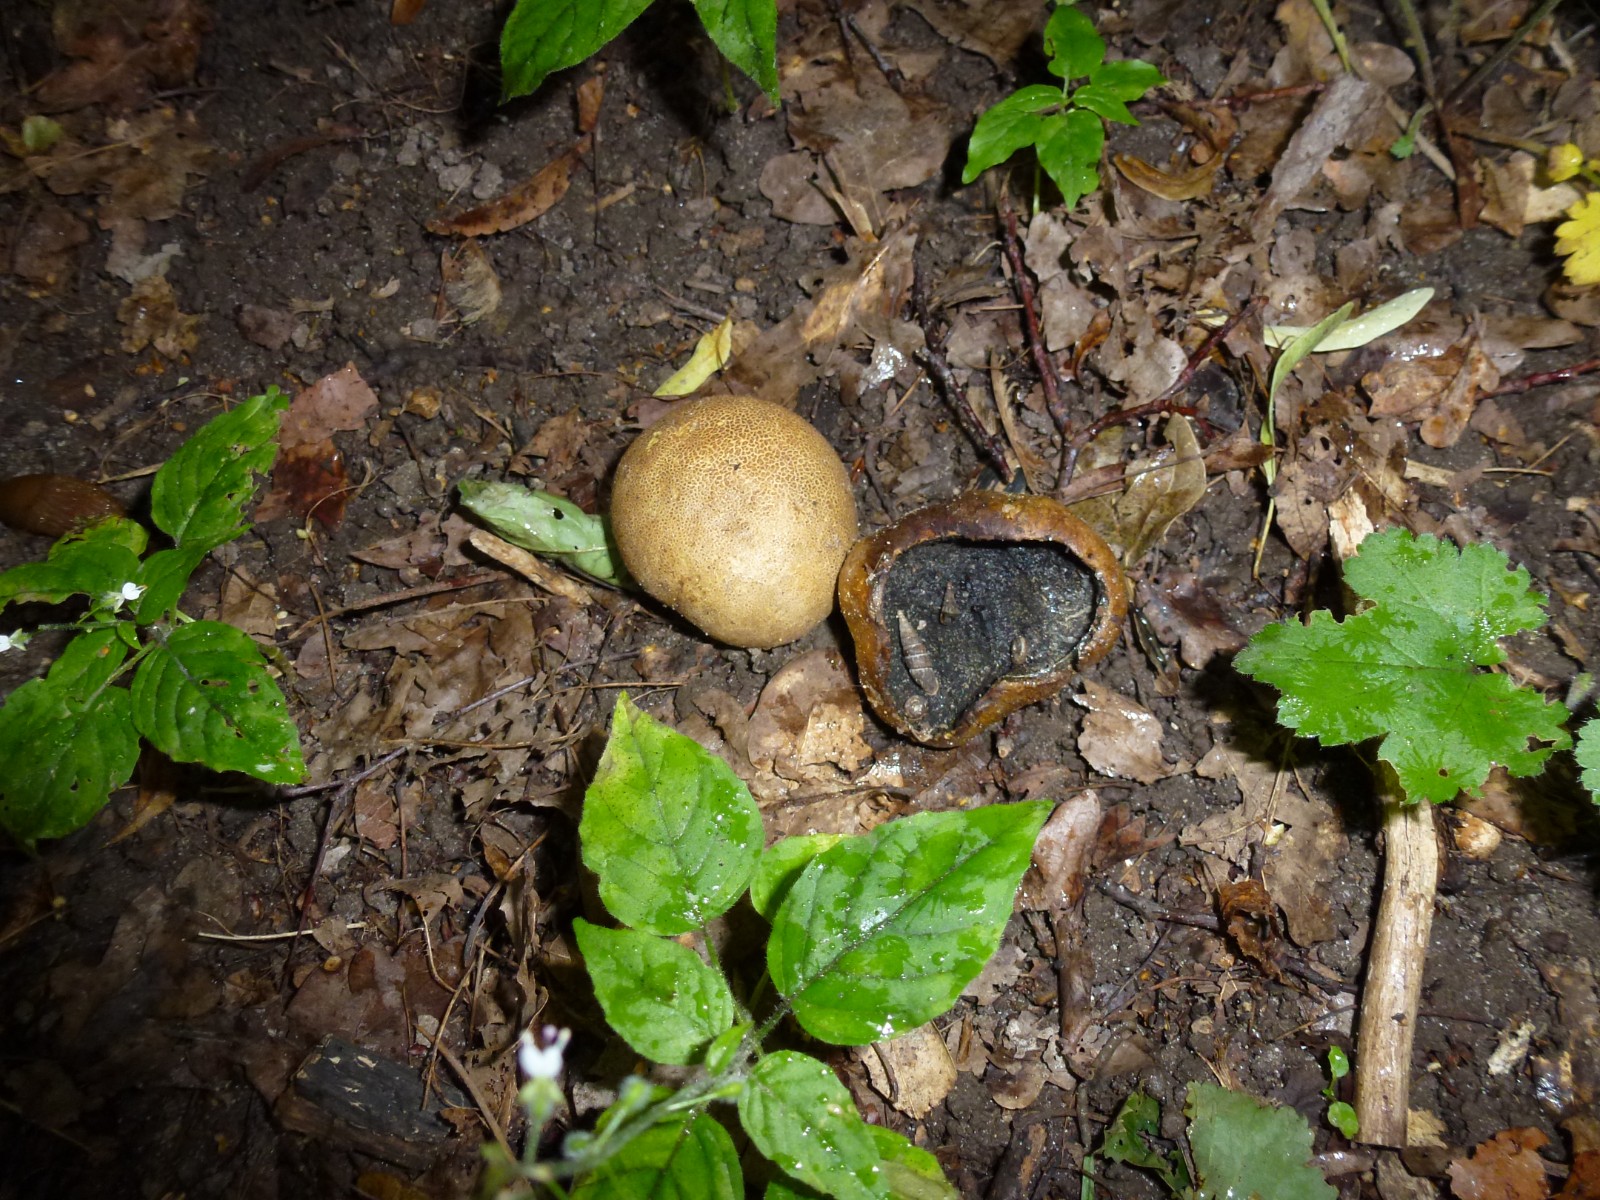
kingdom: Fungi
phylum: Basidiomycota
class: Agaricomycetes
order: Boletales
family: Sclerodermataceae
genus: Scleroderma
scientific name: Scleroderma
